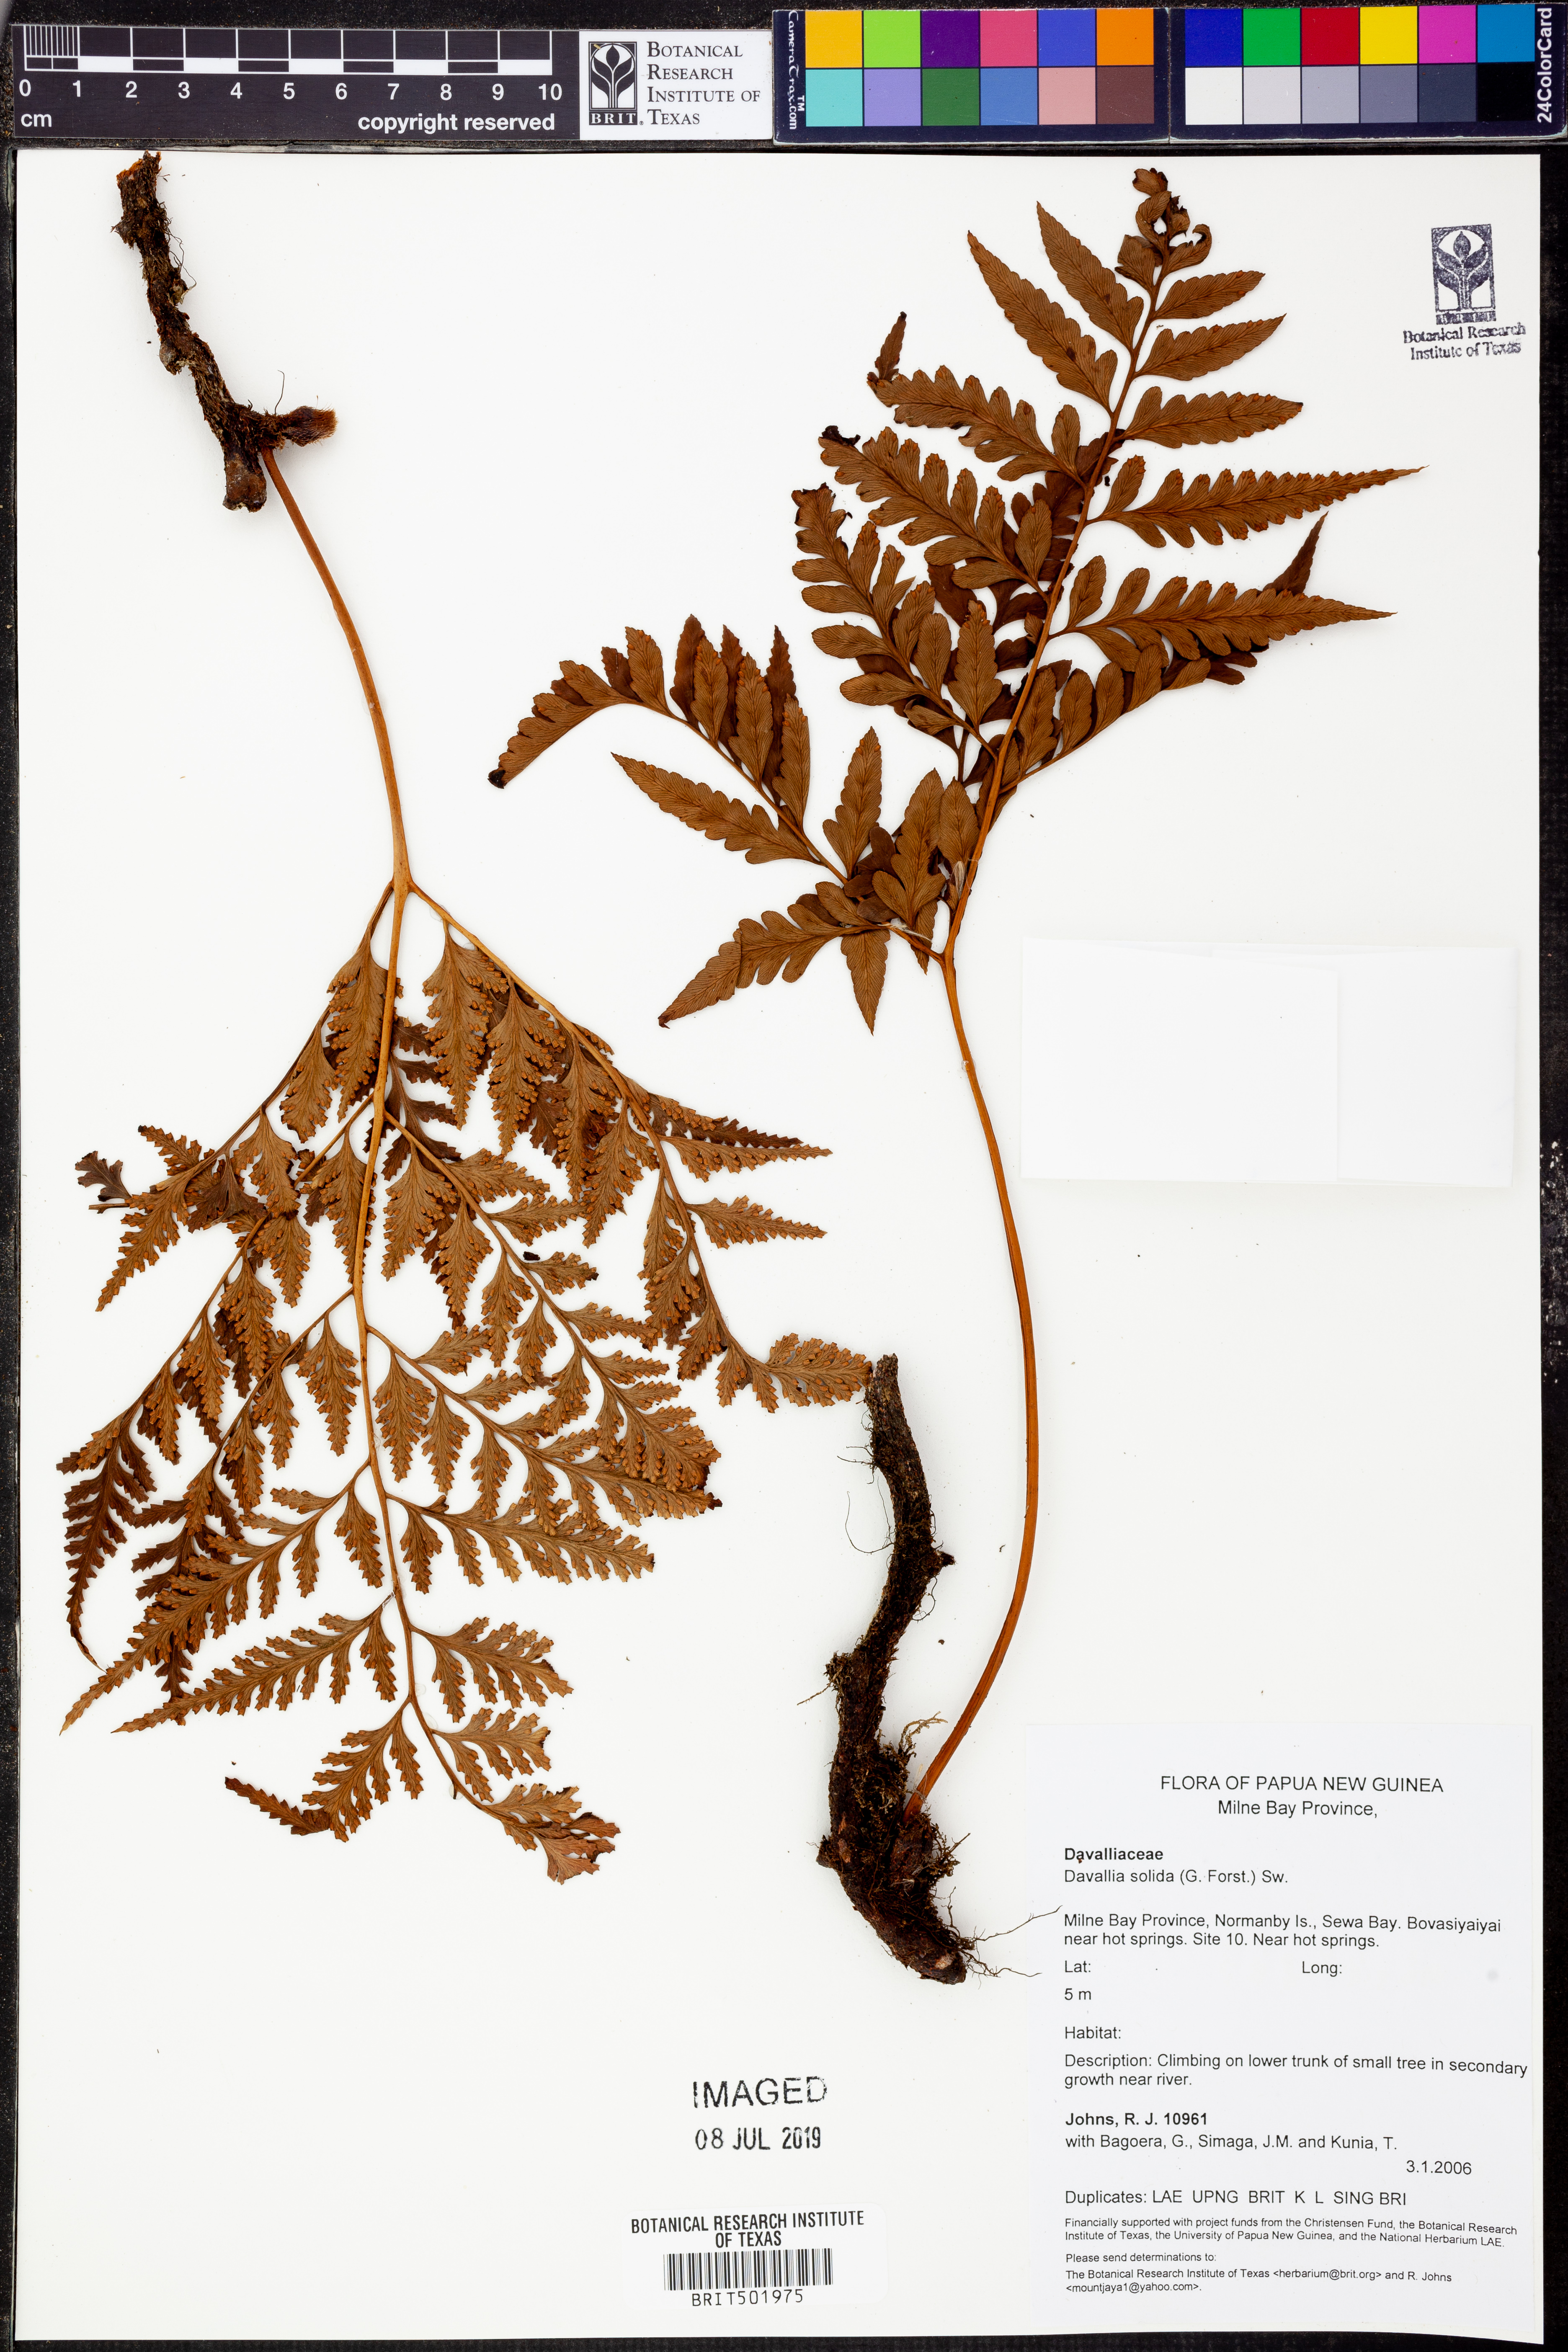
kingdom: Plantae
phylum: Tracheophyta
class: Polypodiopsida
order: Polypodiales
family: Davalliaceae
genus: Davallia
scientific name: Davallia solida
